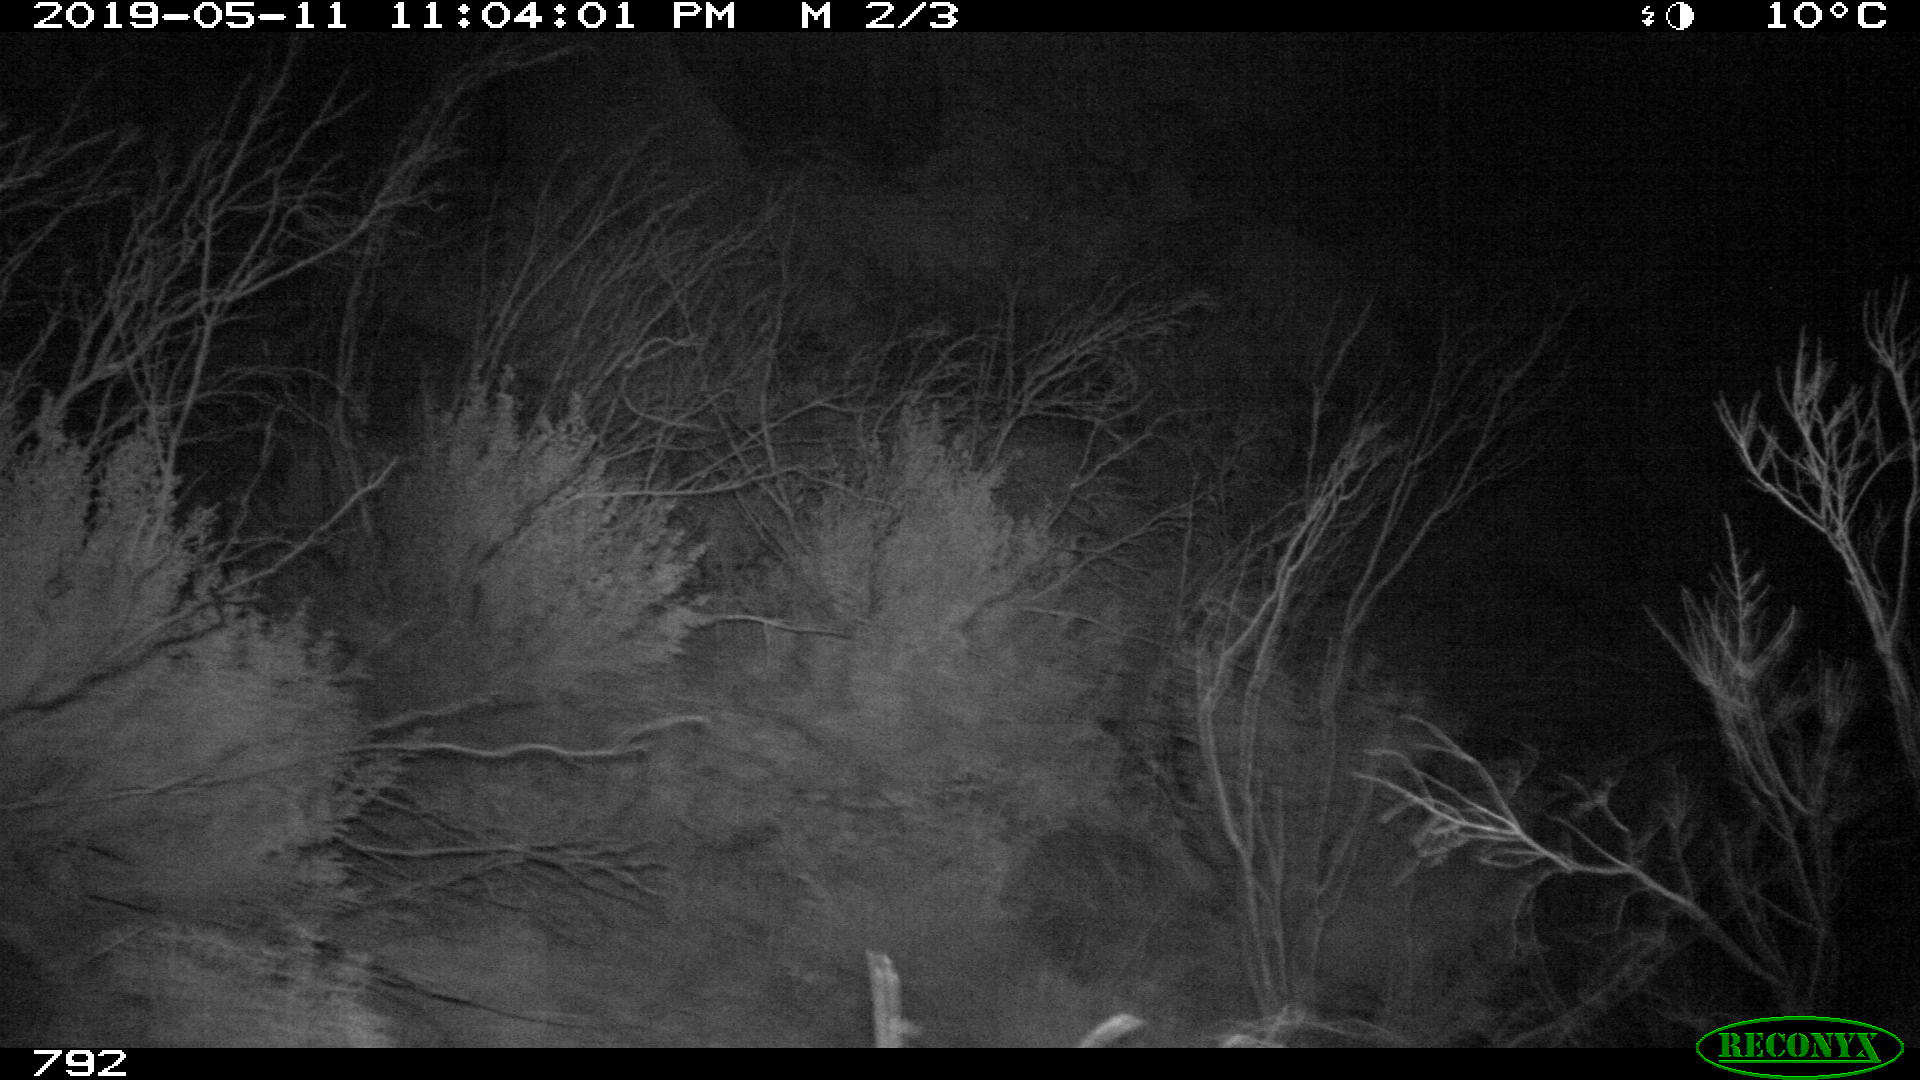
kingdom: Animalia
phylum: Chordata
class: Mammalia
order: Perissodactyla
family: Equidae
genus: Equus
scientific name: Equus caballus
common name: Horse
